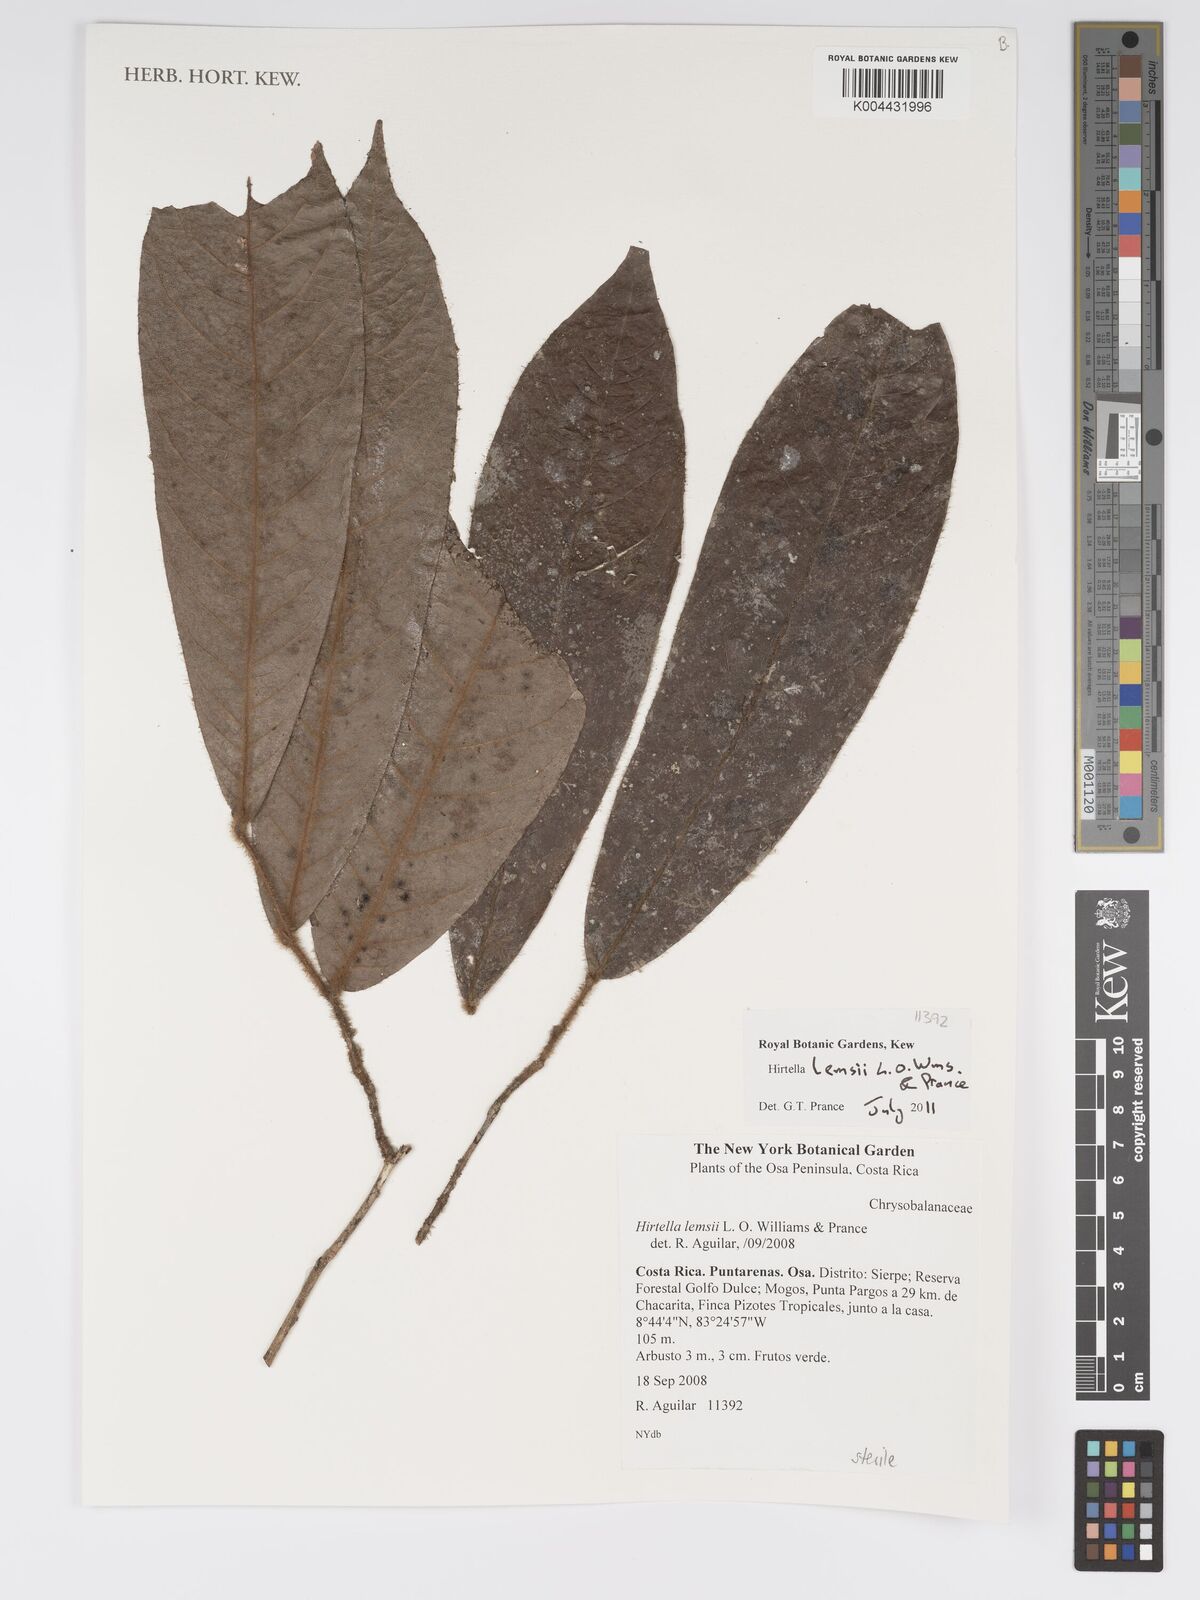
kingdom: Plantae
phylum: Tracheophyta
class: Magnoliopsida
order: Malpighiales
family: Chrysobalanaceae
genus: Hirtella
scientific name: Hirtella lemsii
